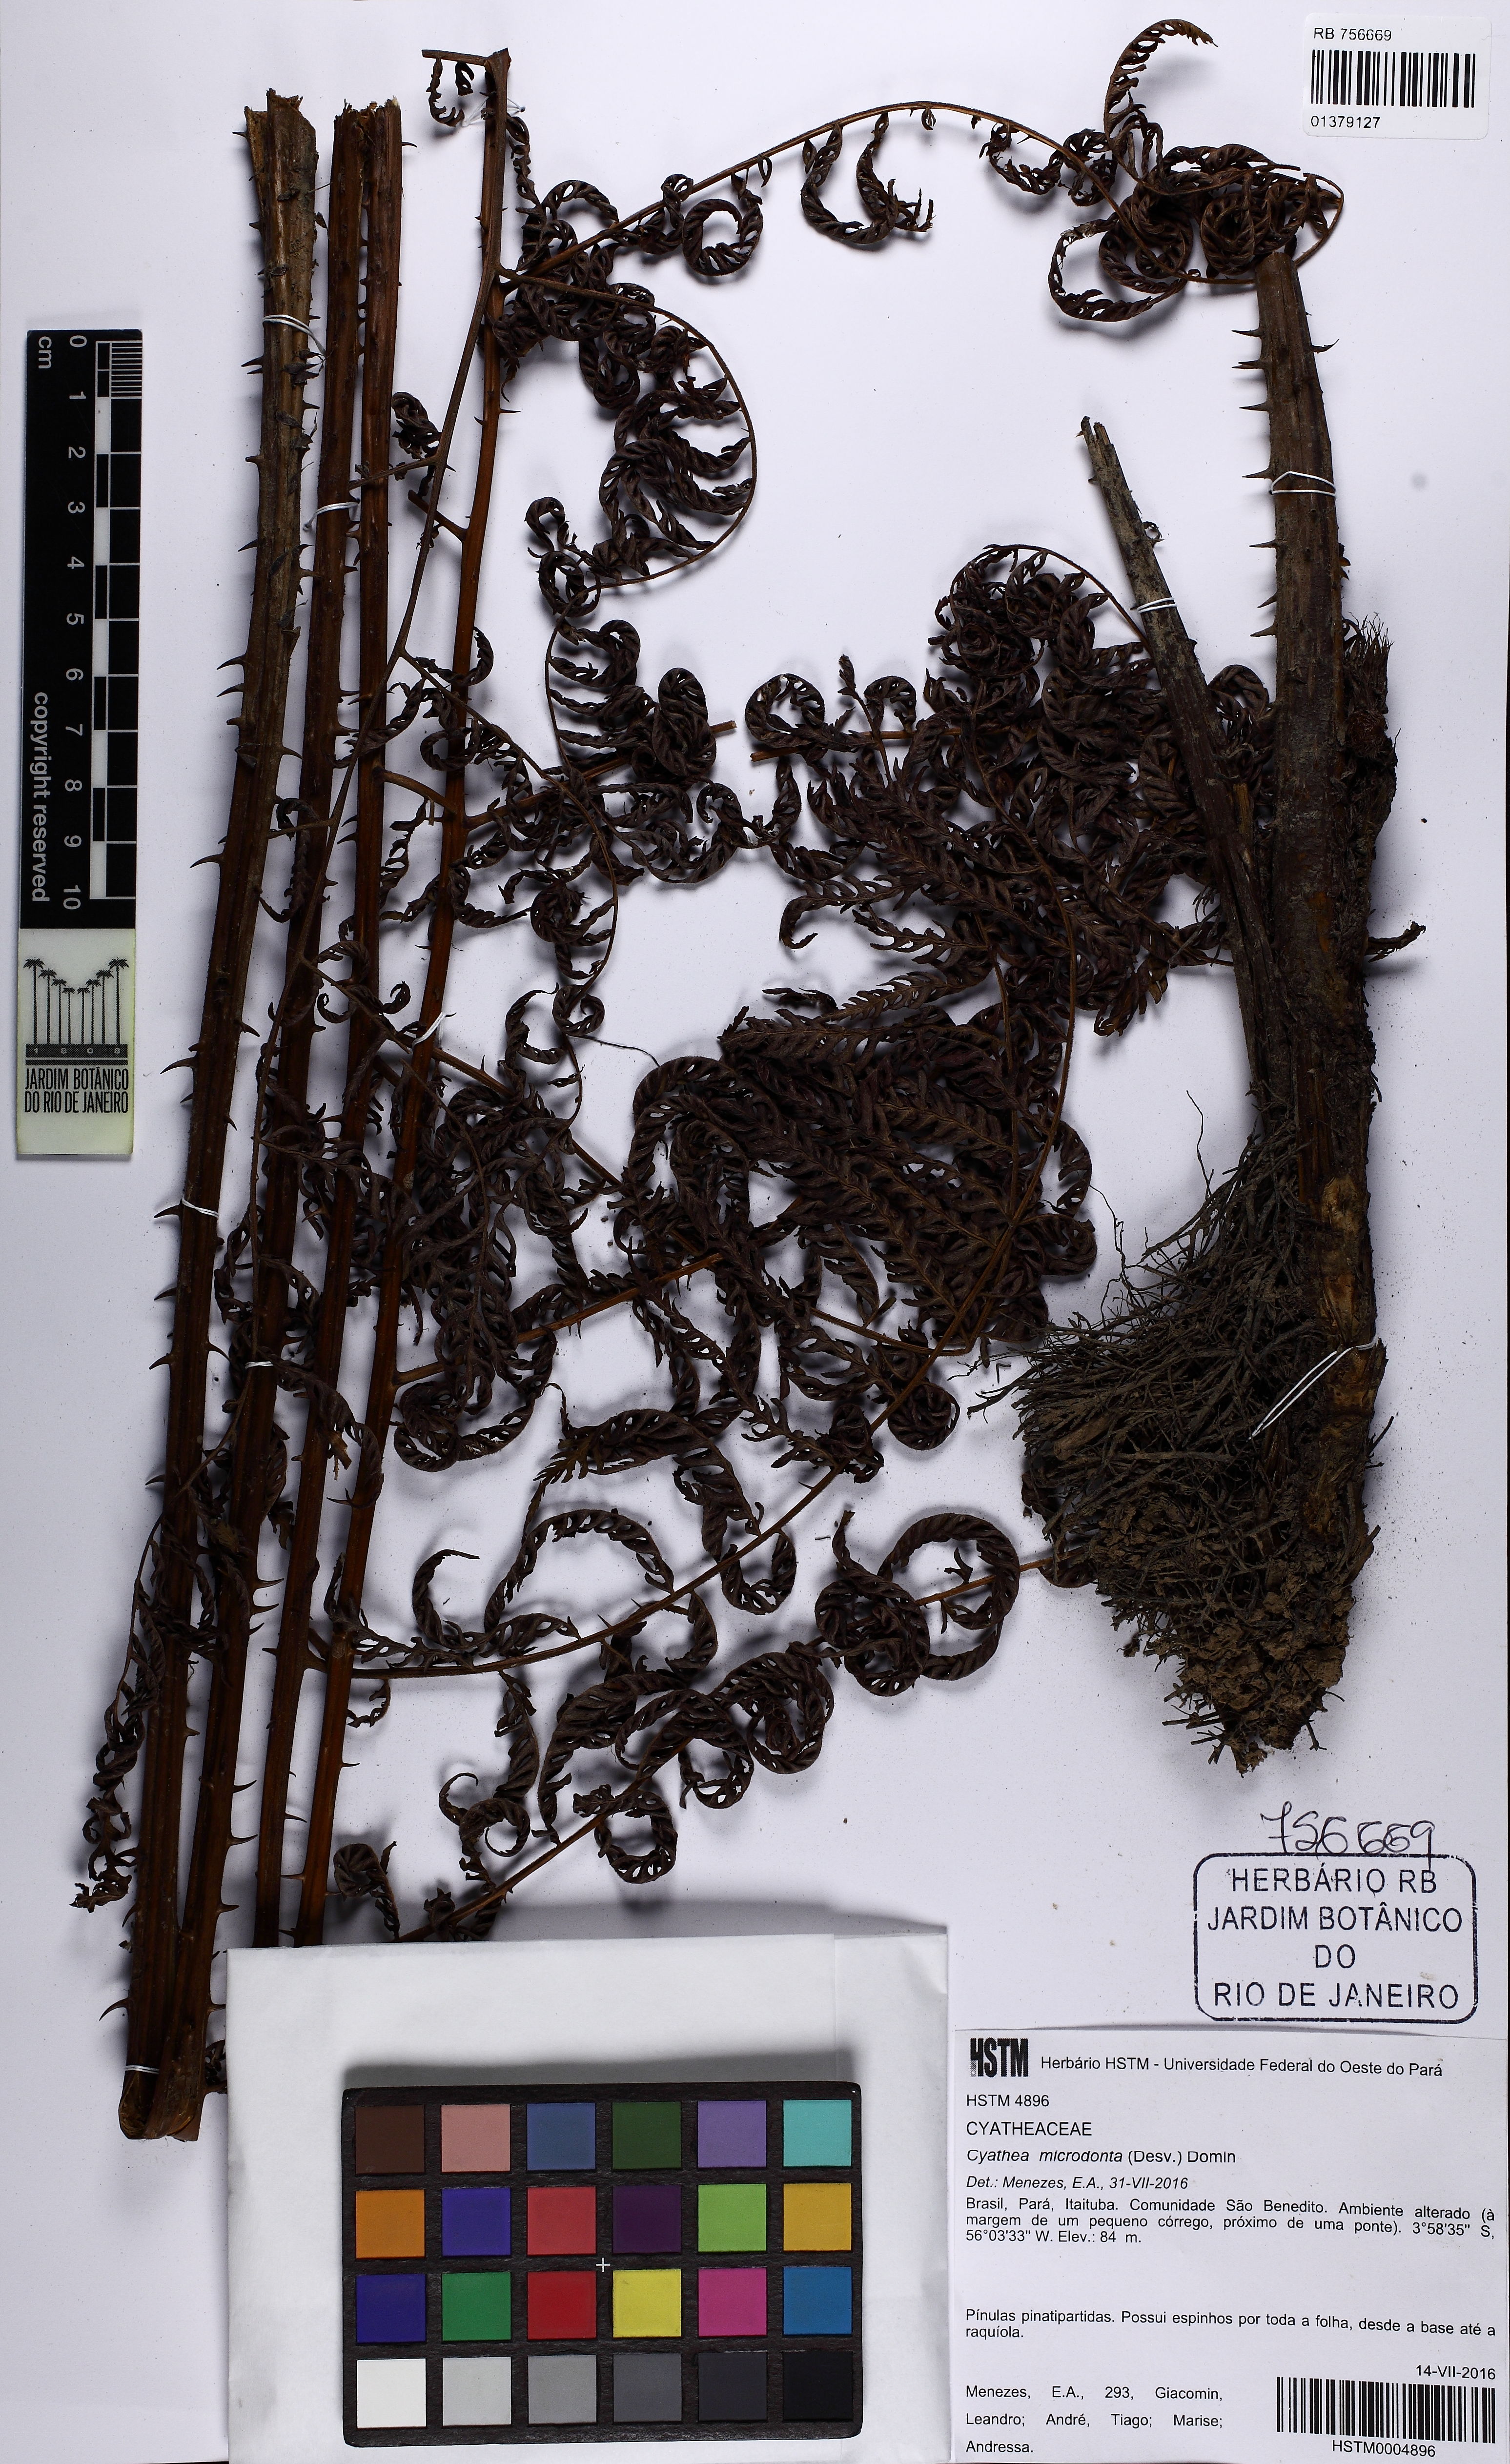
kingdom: Plantae
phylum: Tracheophyta
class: Polypodiopsida
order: Cyatheales
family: Cyatheaceae
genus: Cyathea
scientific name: Cyathea microdonta
